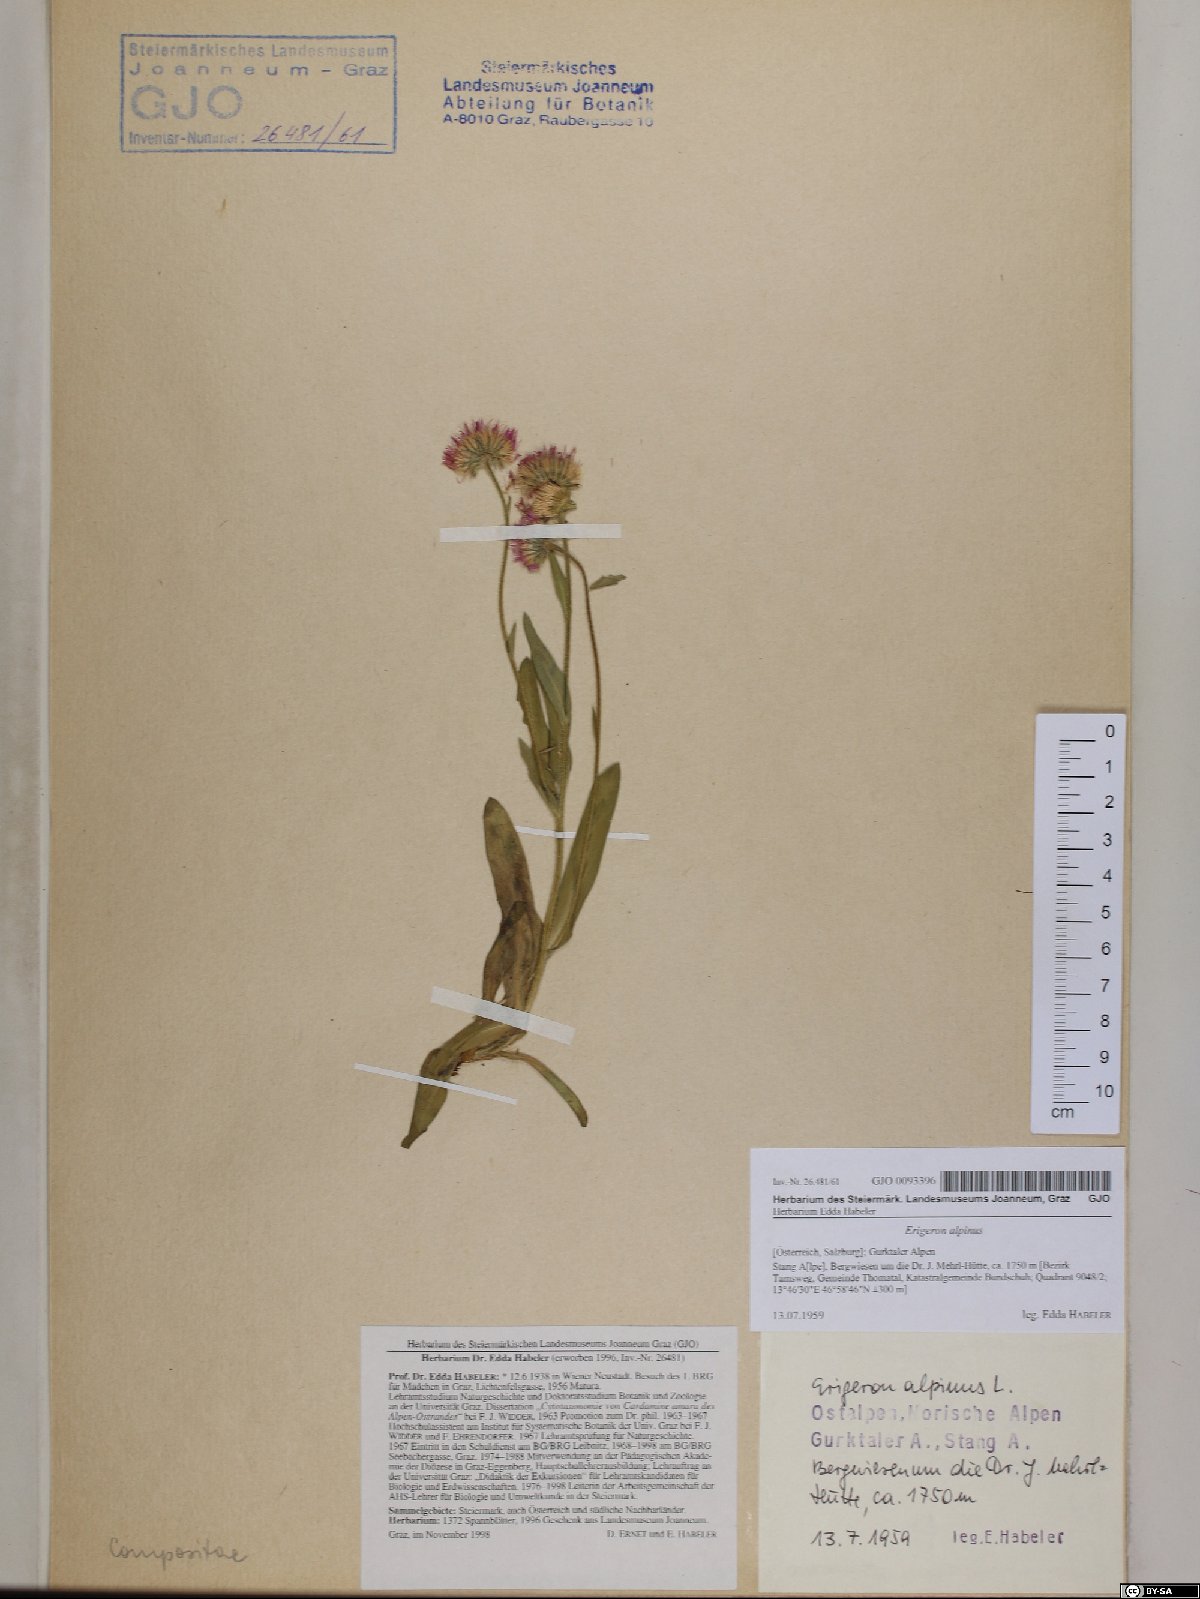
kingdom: Plantae
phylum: Tracheophyta
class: Magnoliopsida
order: Asterales
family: Asteraceae
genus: Erigeron
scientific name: Erigeron alpinus
